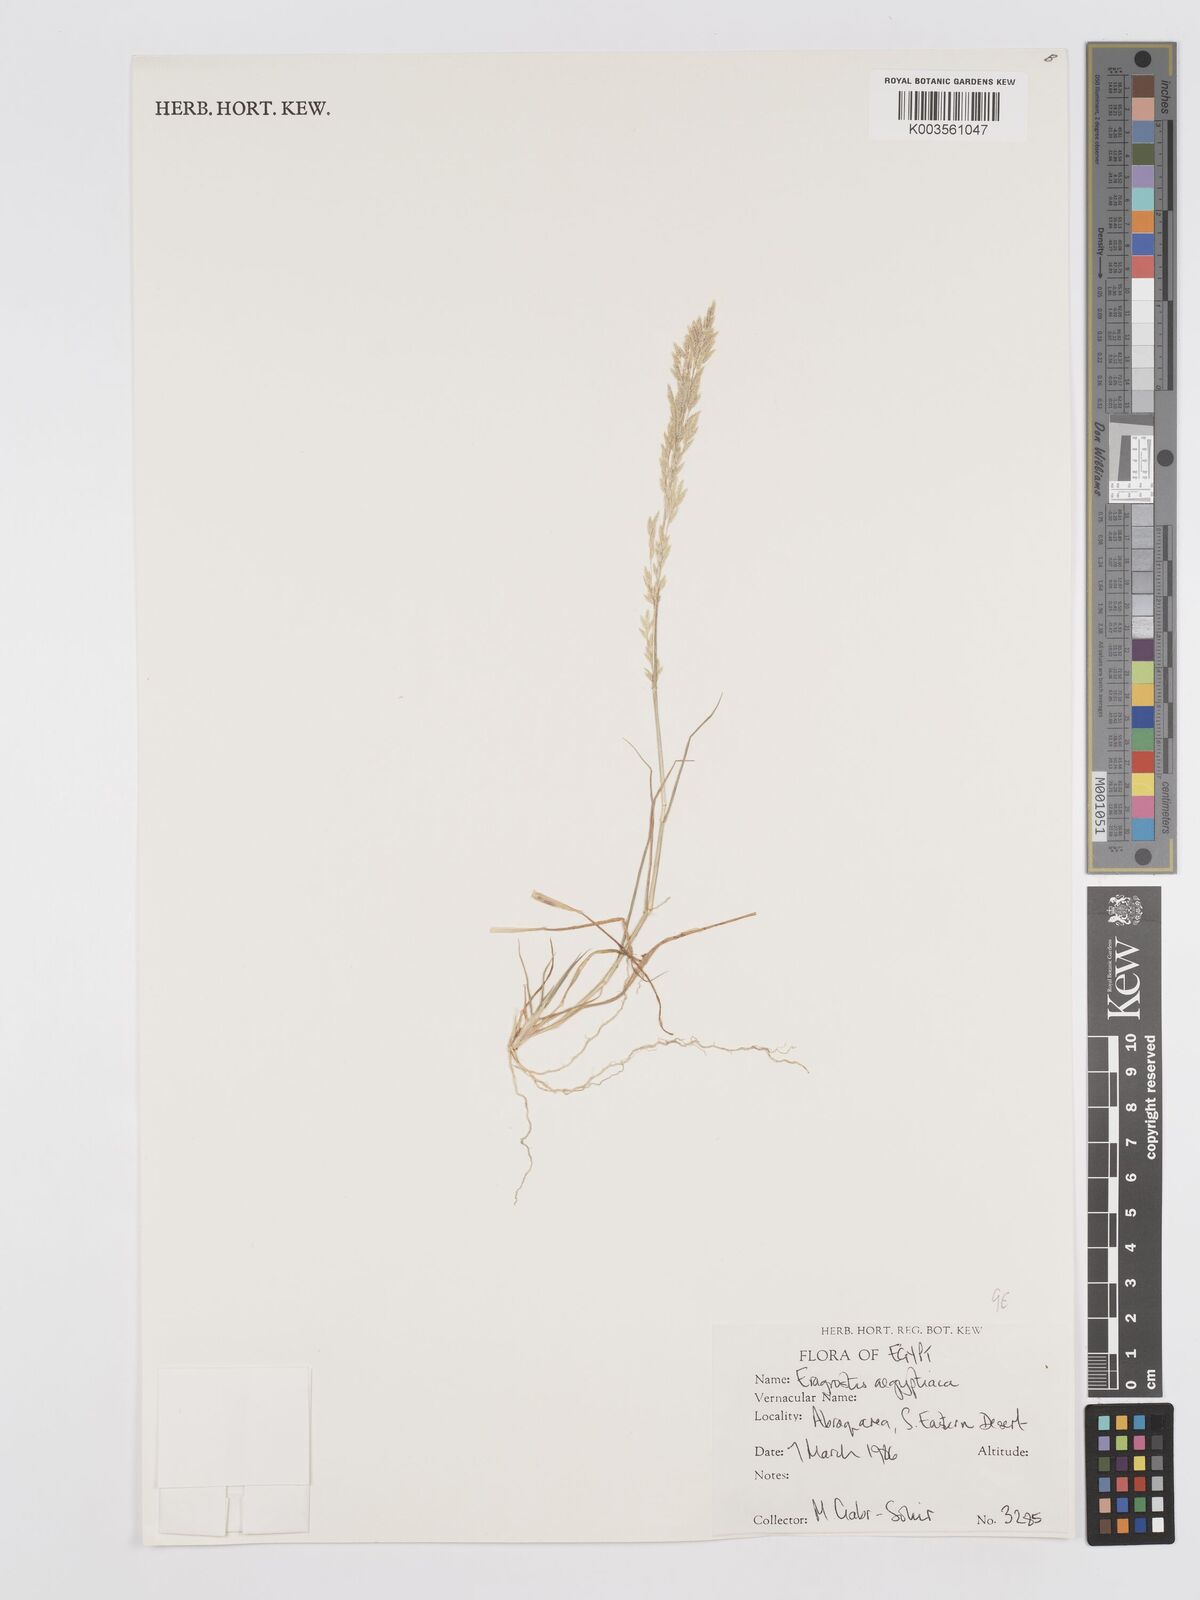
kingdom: Plantae
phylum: Tracheophyta
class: Liliopsida
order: Poales
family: Poaceae
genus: Eragrostis
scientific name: Eragrostis aegyptiaca
